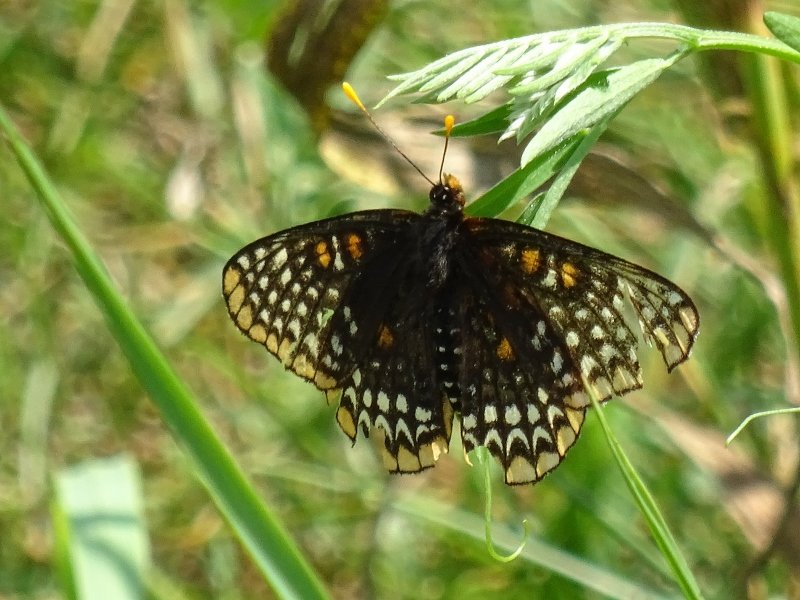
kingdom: Animalia
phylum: Arthropoda
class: Insecta
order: Lepidoptera
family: Nymphalidae
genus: Euphydryas
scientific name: Euphydryas phaeton
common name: Baltimore Checkerspot
